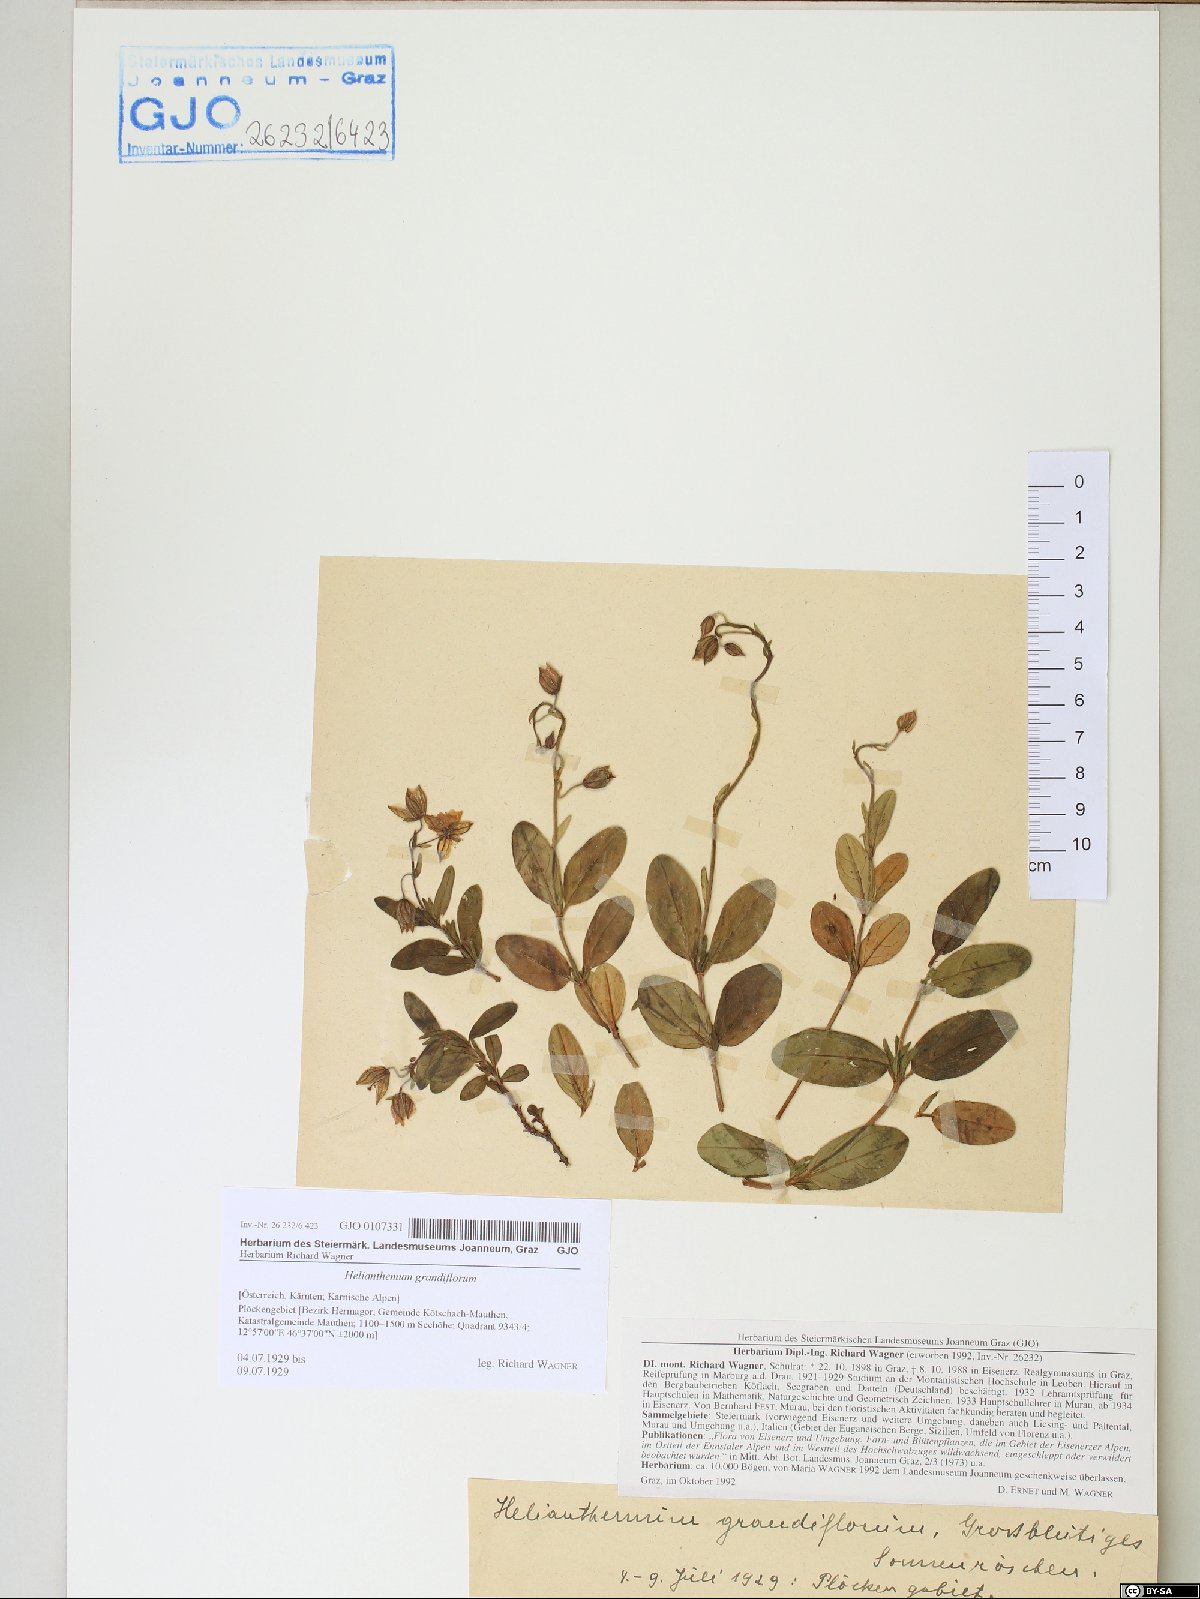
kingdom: Plantae
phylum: Tracheophyta
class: Magnoliopsida
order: Malvales
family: Cistaceae
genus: Helianthemum
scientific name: Helianthemum nummularium
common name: Common rock-rose
